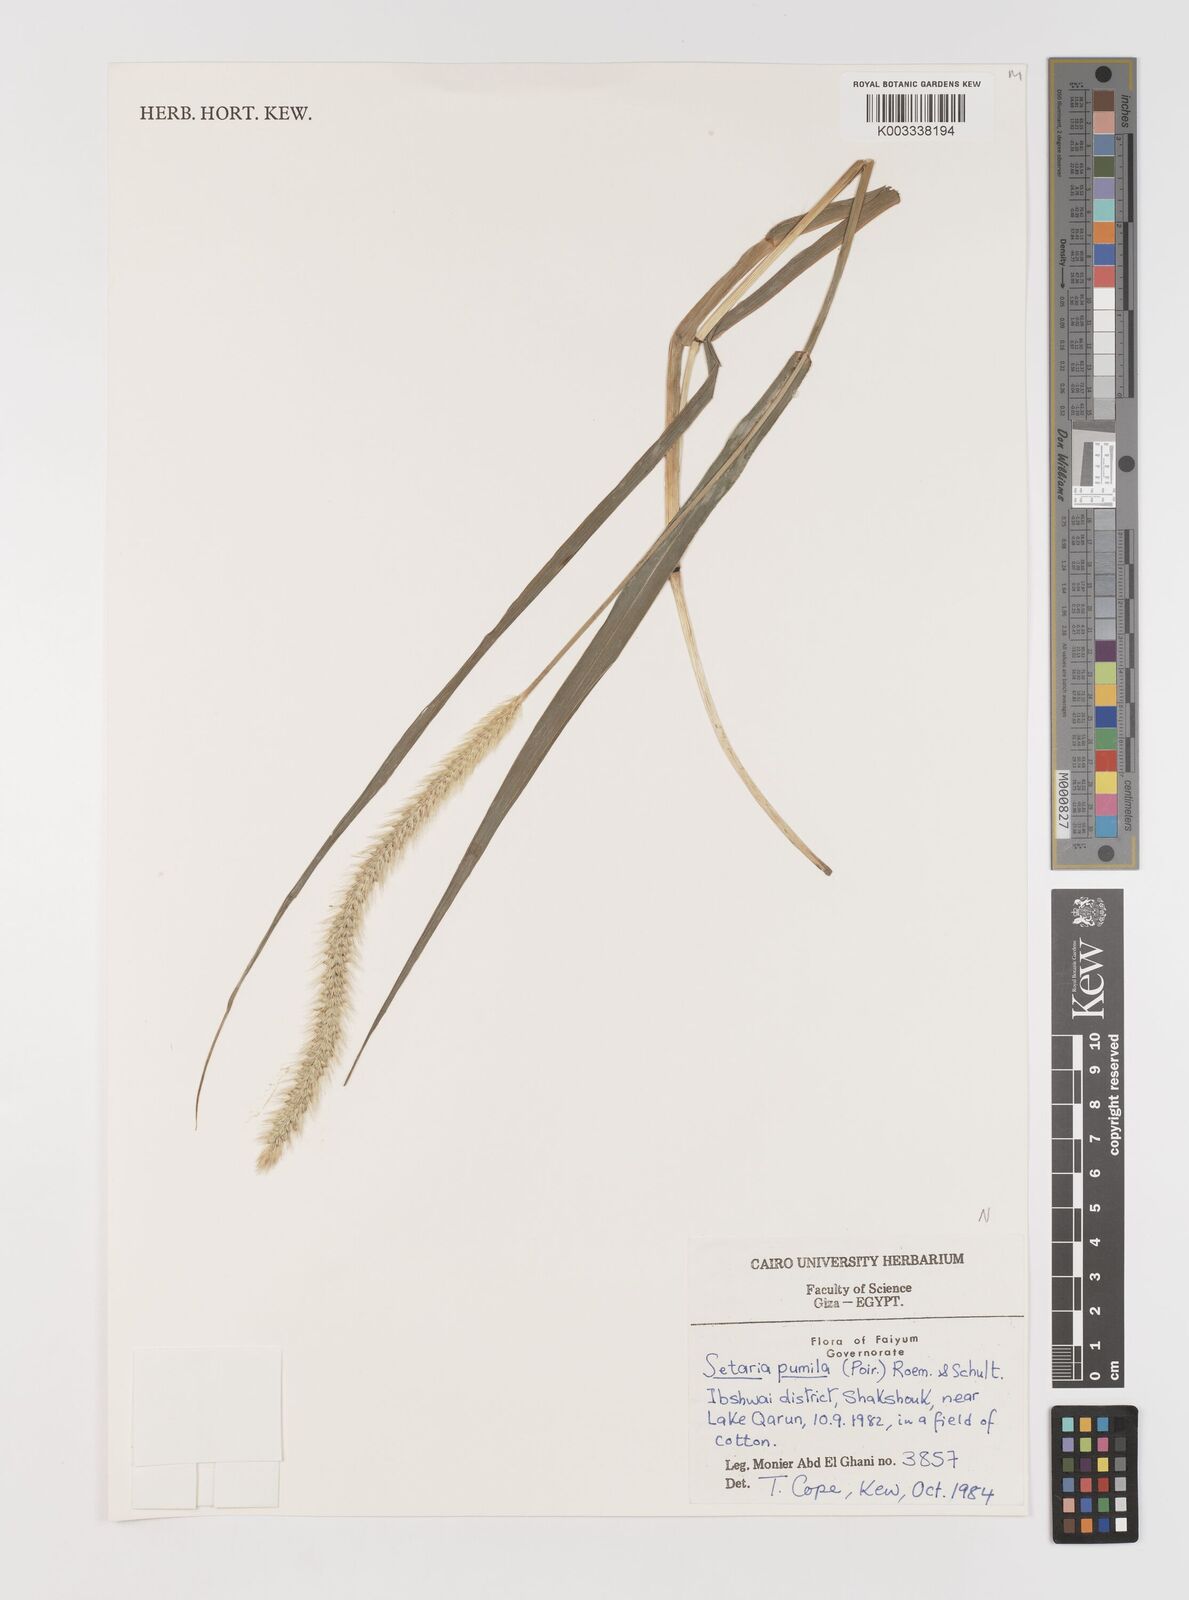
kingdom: Plantae
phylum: Tracheophyta
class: Liliopsida
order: Poales
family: Poaceae
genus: Setaria
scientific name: Setaria pumila
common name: Yellow bristle-grass
